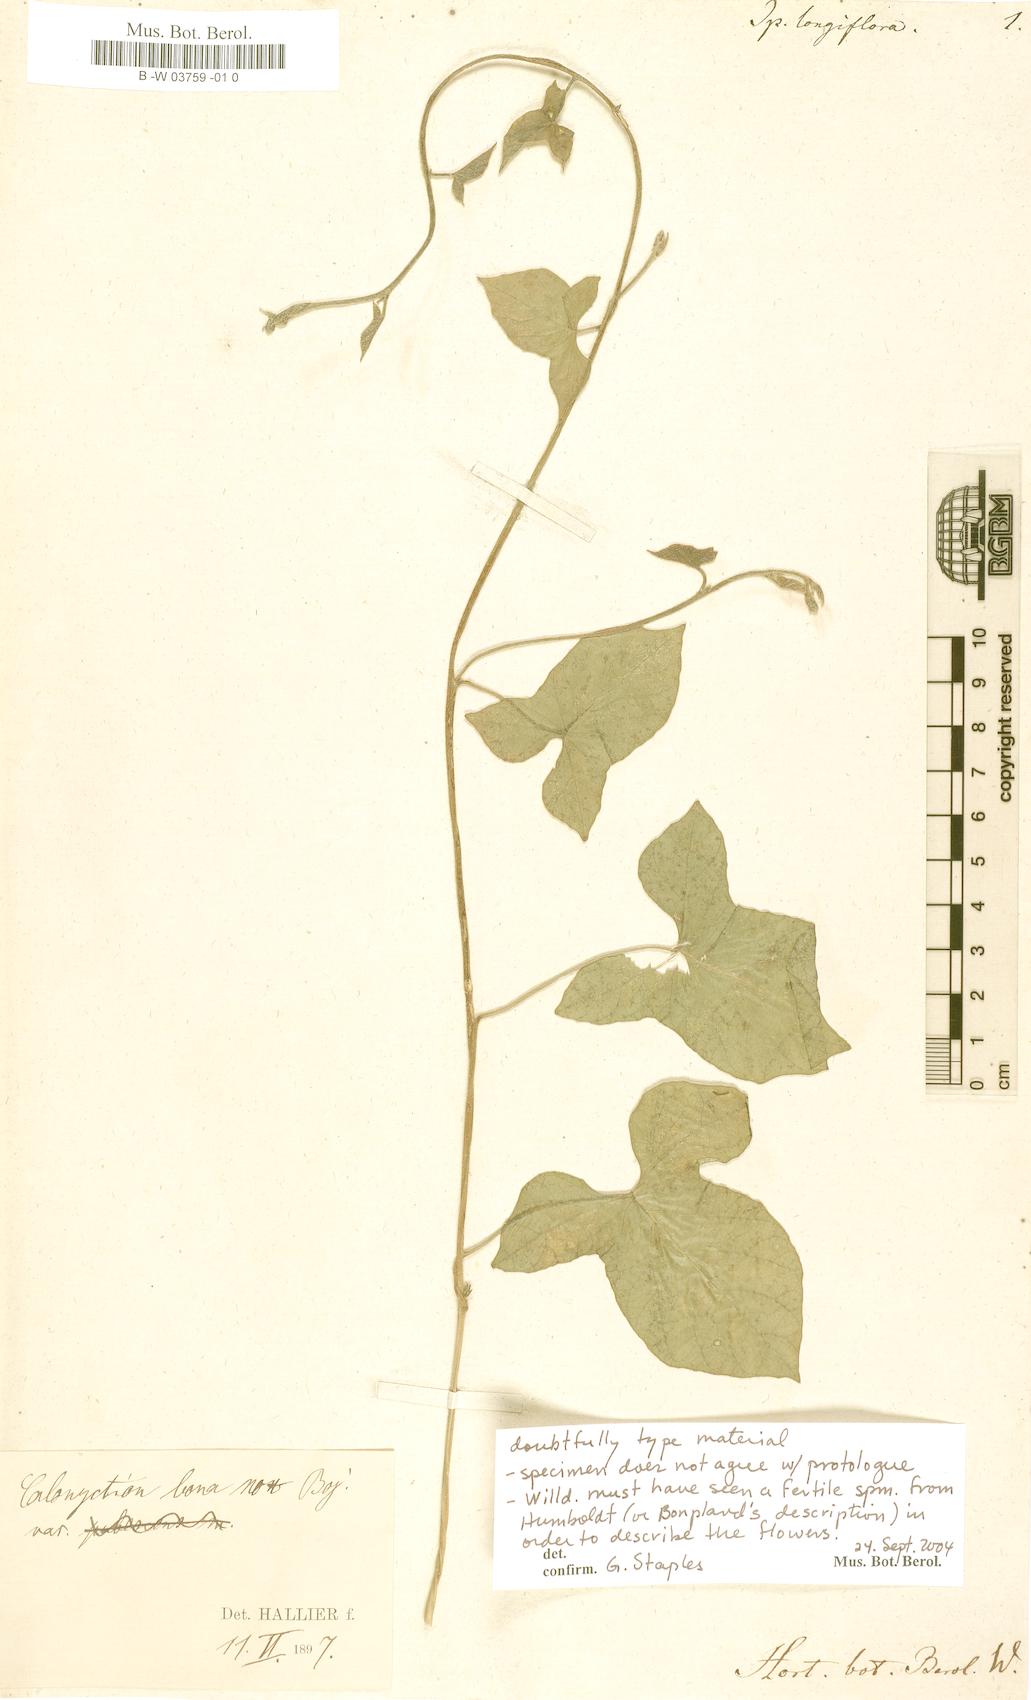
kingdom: Plantae
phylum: Tracheophyta
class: Magnoliopsida
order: Solanales
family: Convolvulaceae
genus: Ipomoea
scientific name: Ipomoea
